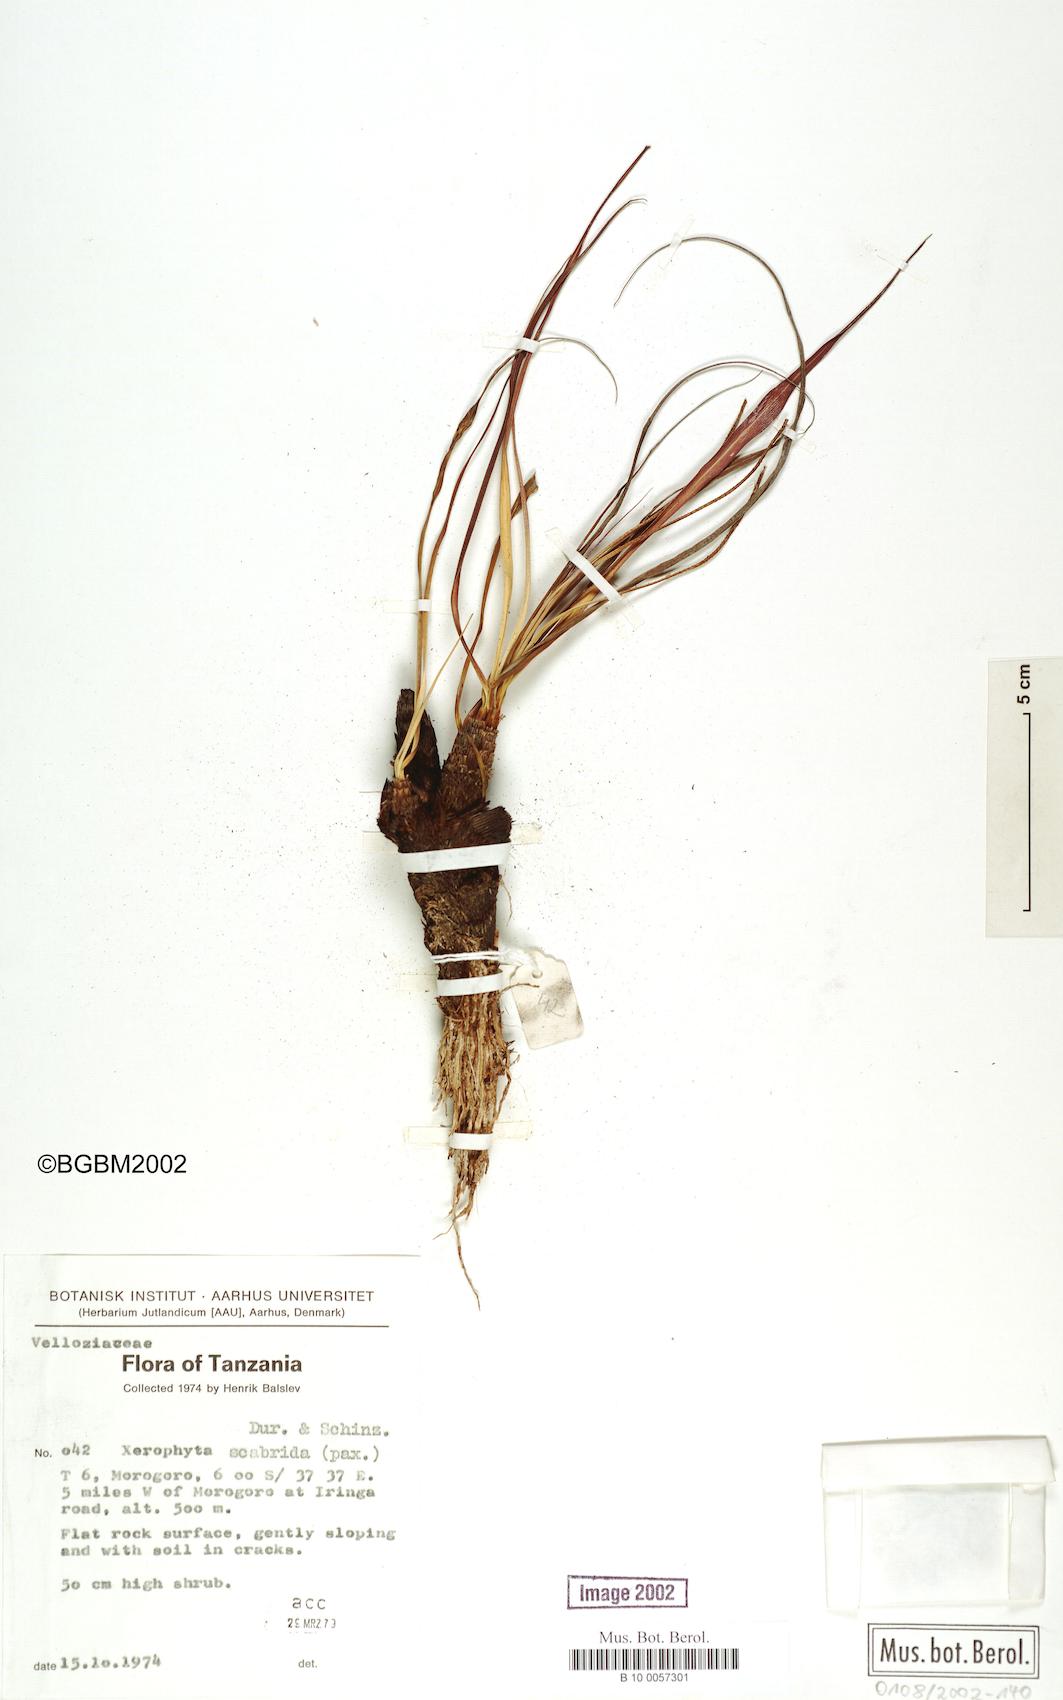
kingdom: Plantae
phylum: Tracheophyta
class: Liliopsida
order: Pandanales
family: Velloziaceae
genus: Xerophyta
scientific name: Xerophyta scabrida
